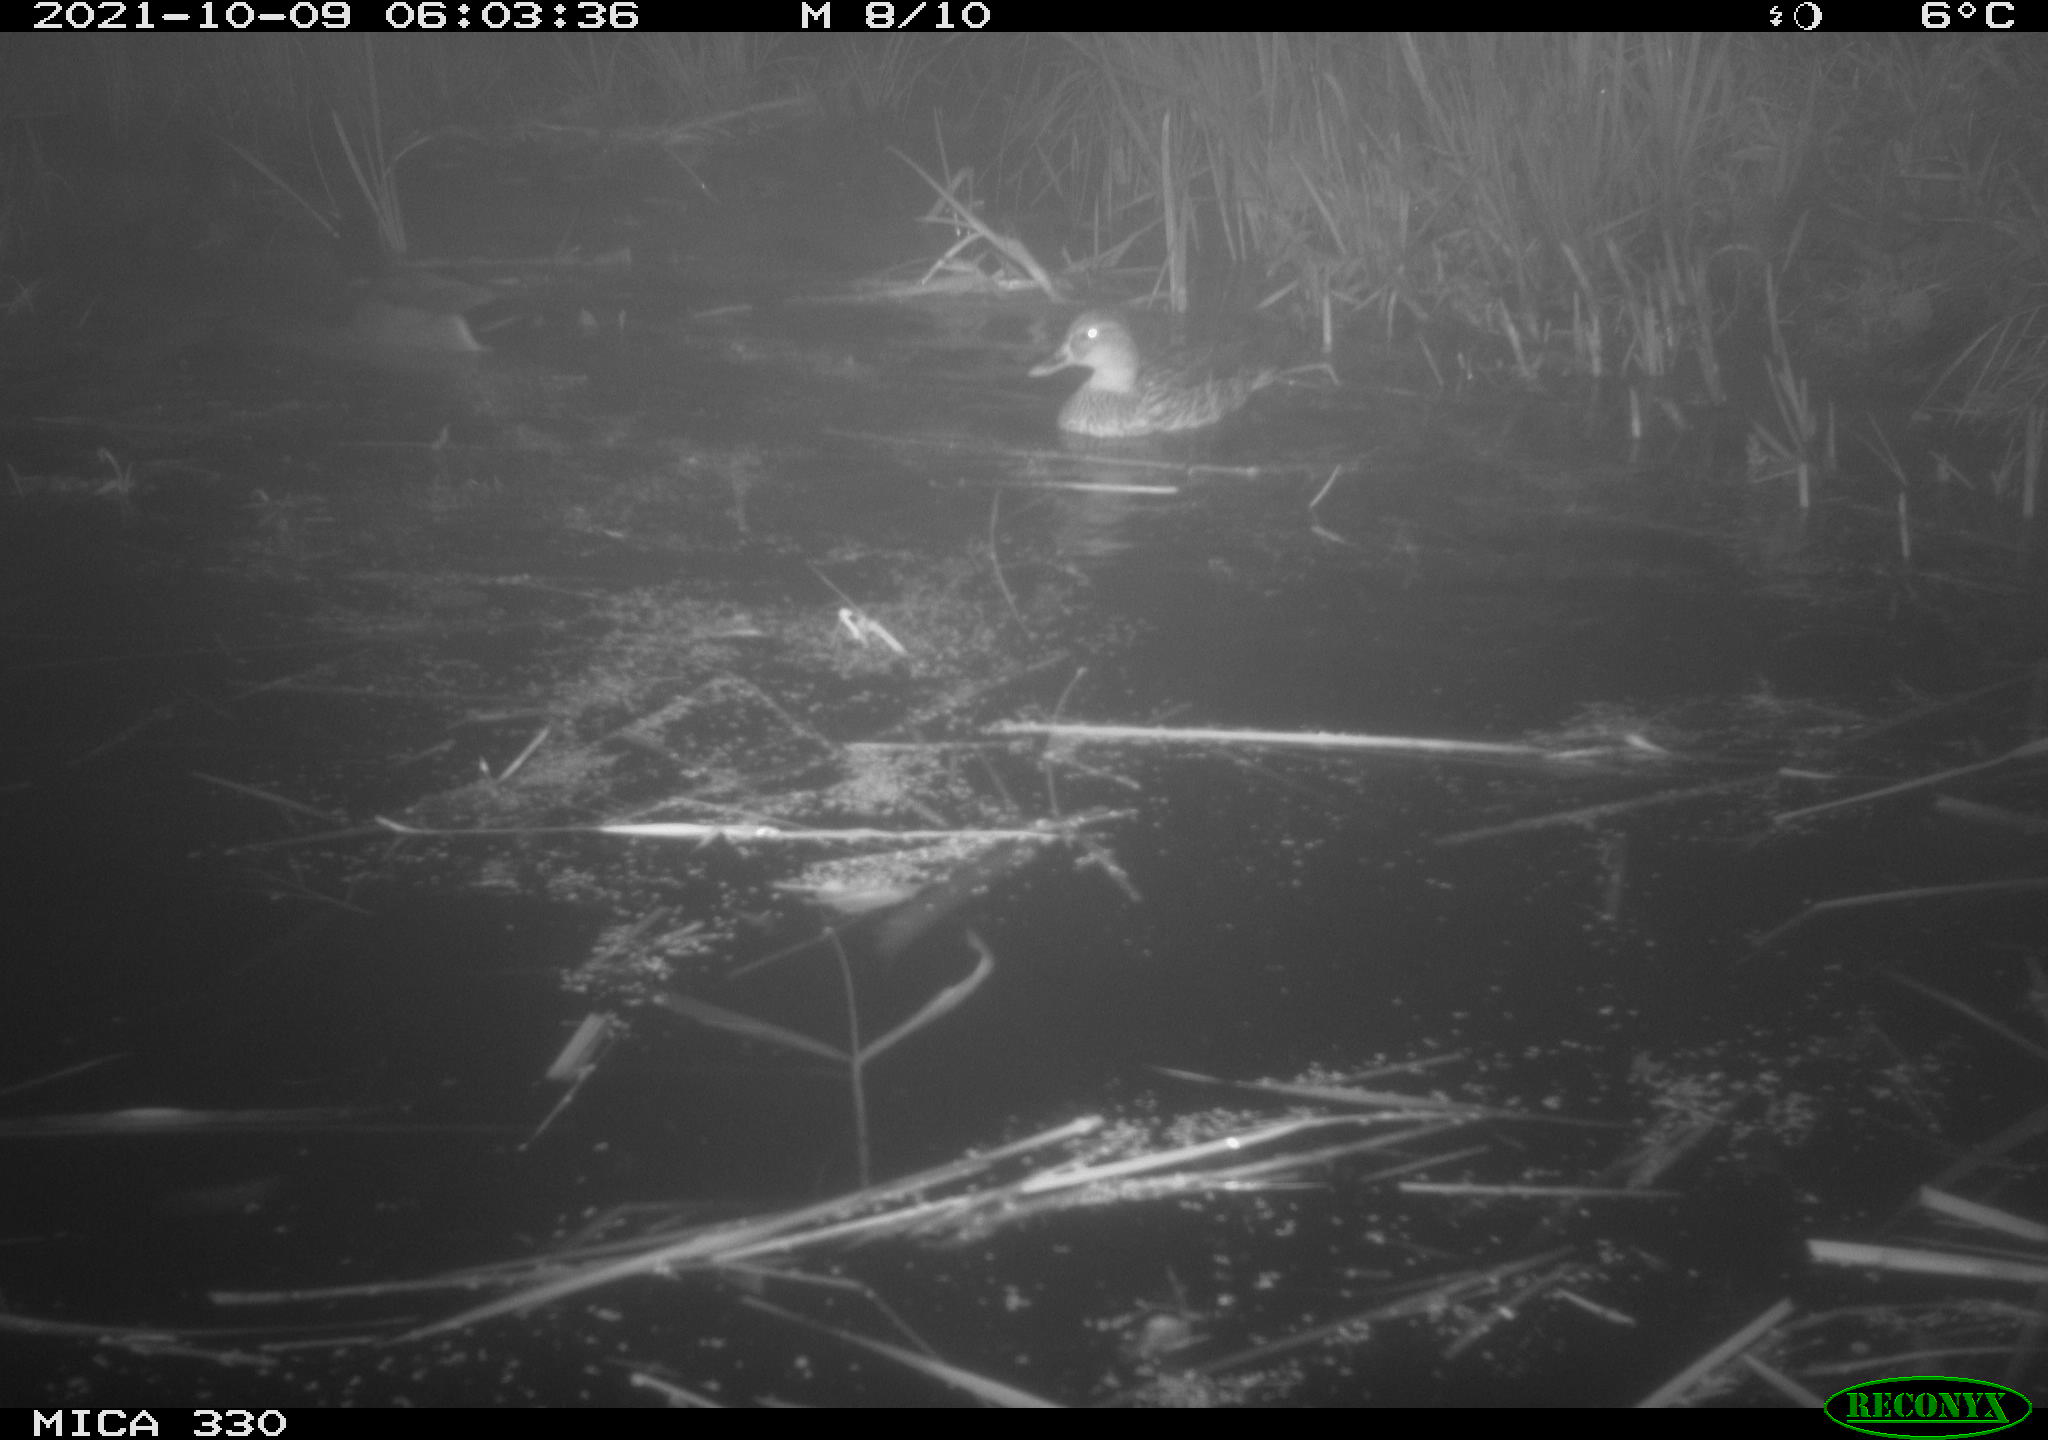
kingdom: Animalia
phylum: Chordata
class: Aves
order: Anseriformes
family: Anatidae
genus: Anas
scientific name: Anas platyrhynchos
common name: Mallard
